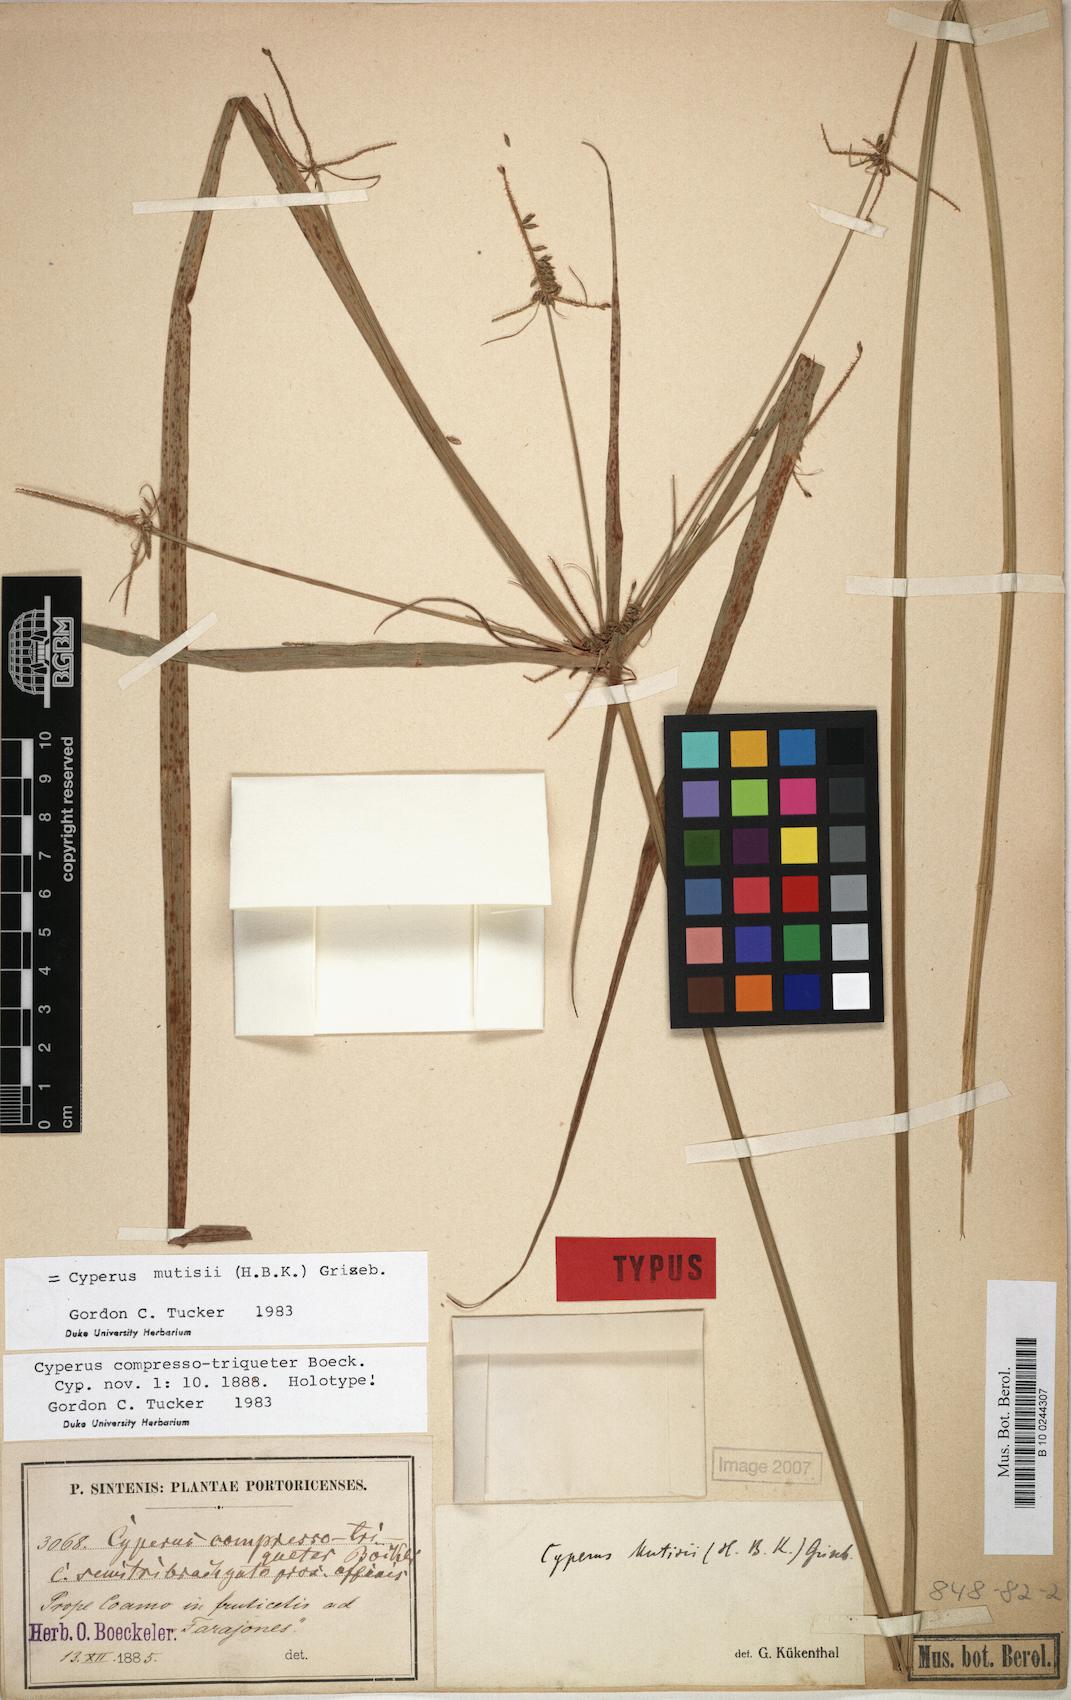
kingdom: Plantae
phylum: Tracheophyta
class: Liliopsida
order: Poales
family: Cyperaceae
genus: Cyperus
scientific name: Cyperus mutisii
